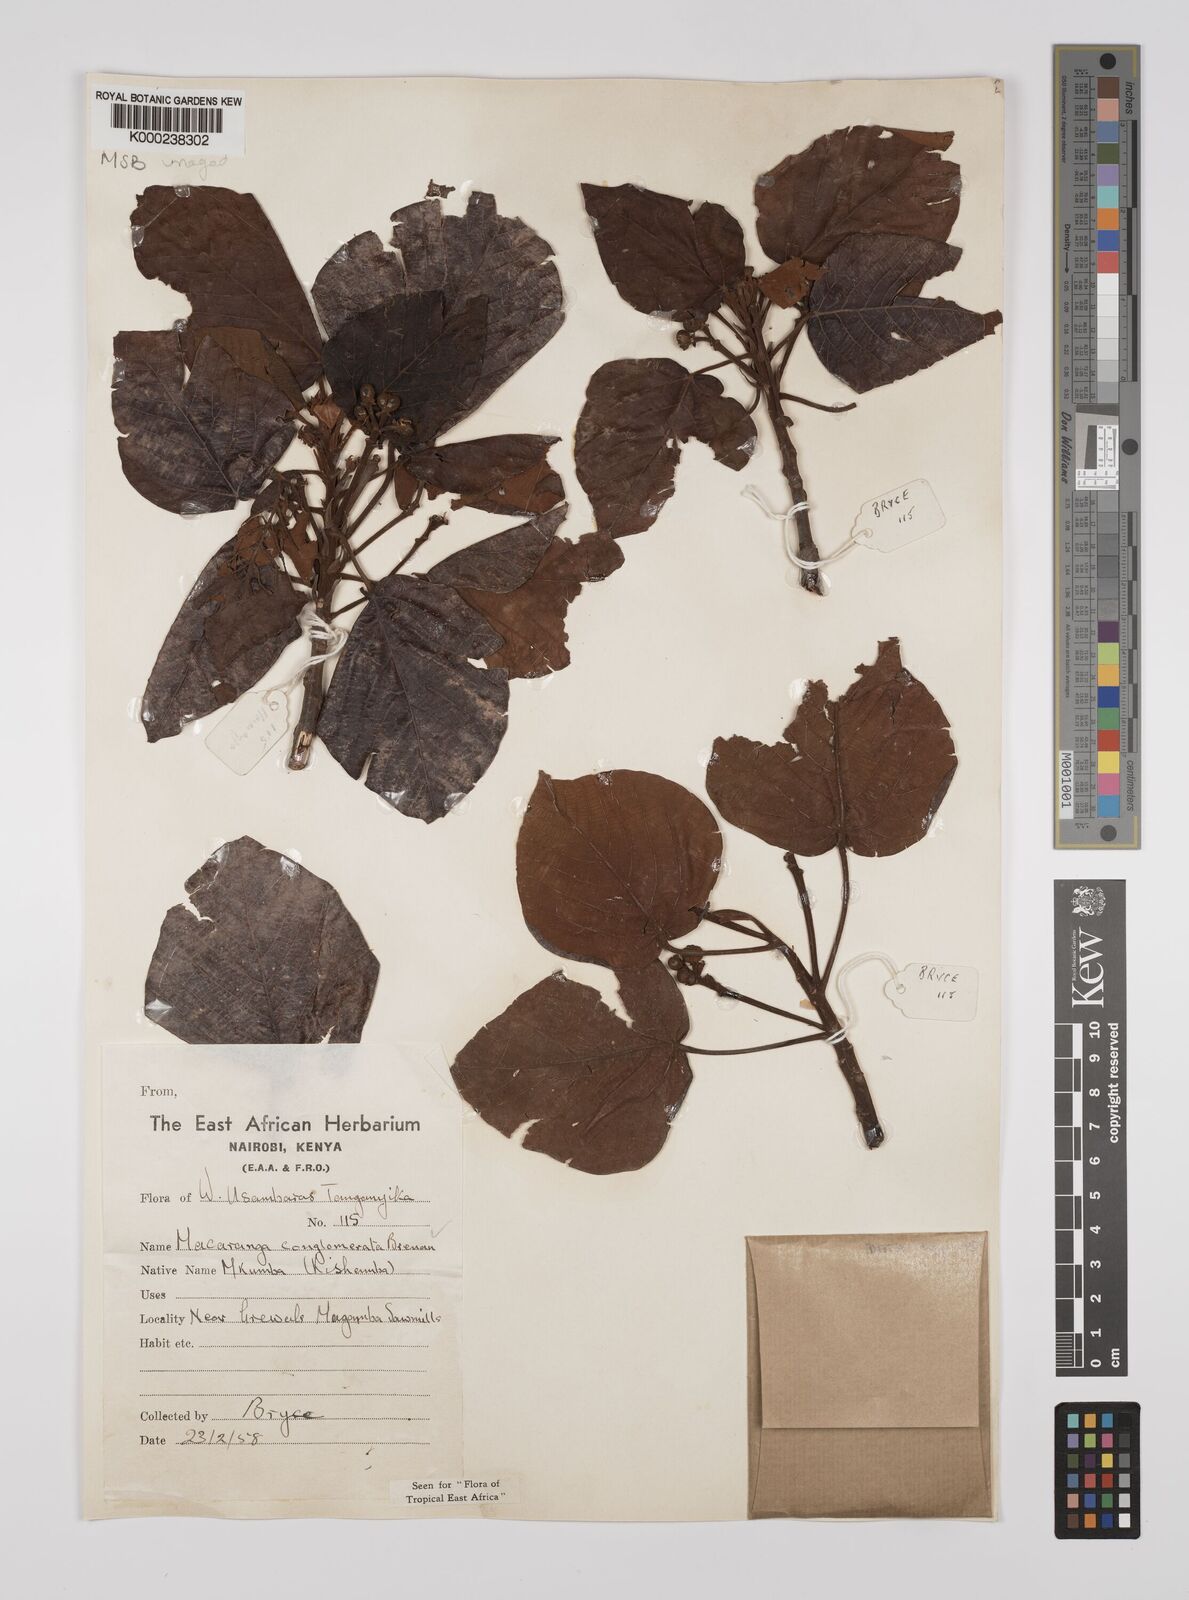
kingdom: Plantae
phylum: Tracheophyta
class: Magnoliopsida
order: Malpighiales
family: Euphorbiaceae
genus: Macaranga
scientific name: Macaranga conglomerata
